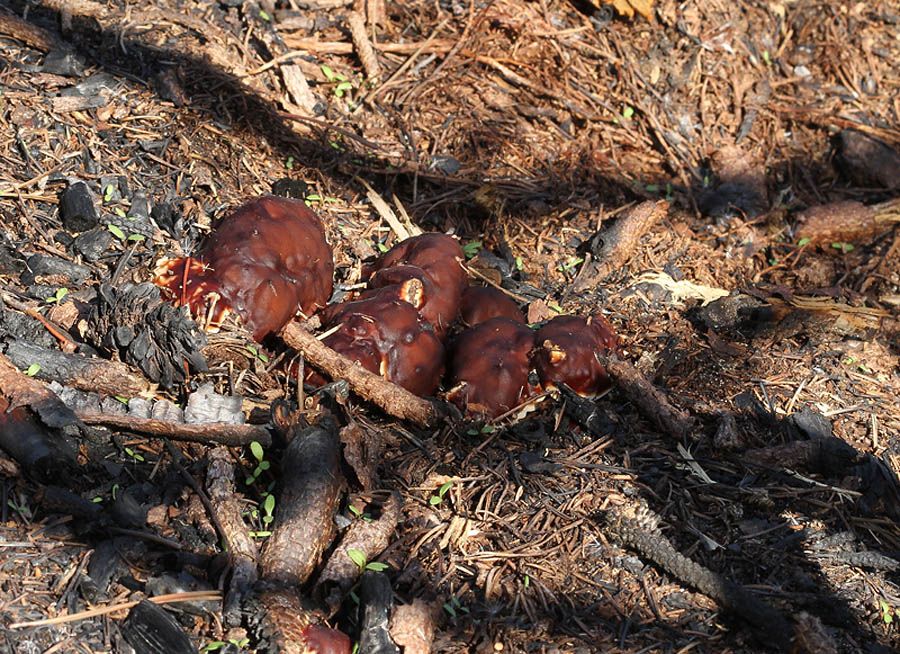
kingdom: Fungi
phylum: Ascomycota
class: Pezizomycetes
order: Pezizales
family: Rhizinaceae
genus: Rhizina
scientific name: Rhizina undulata
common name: rodmorkel
